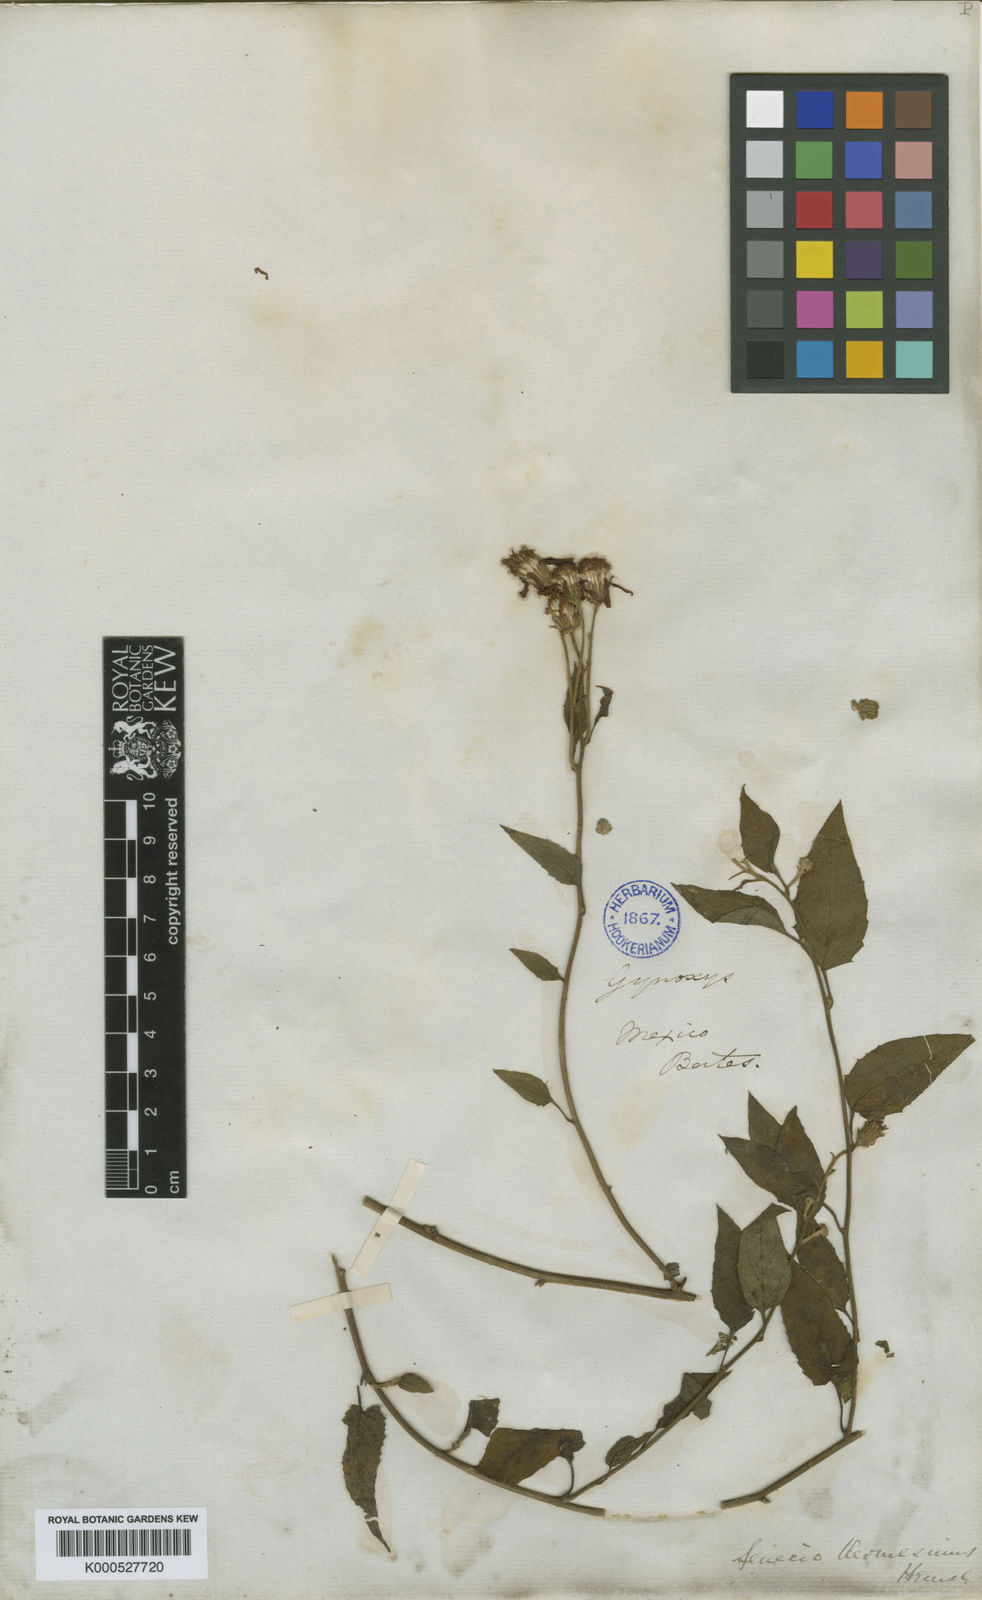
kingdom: Plantae
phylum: Tracheophyta
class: Magnoliopsida
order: Asterales
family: Asteraceae
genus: Pseudogynoxys
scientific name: Pseudogynoxys haenkei
